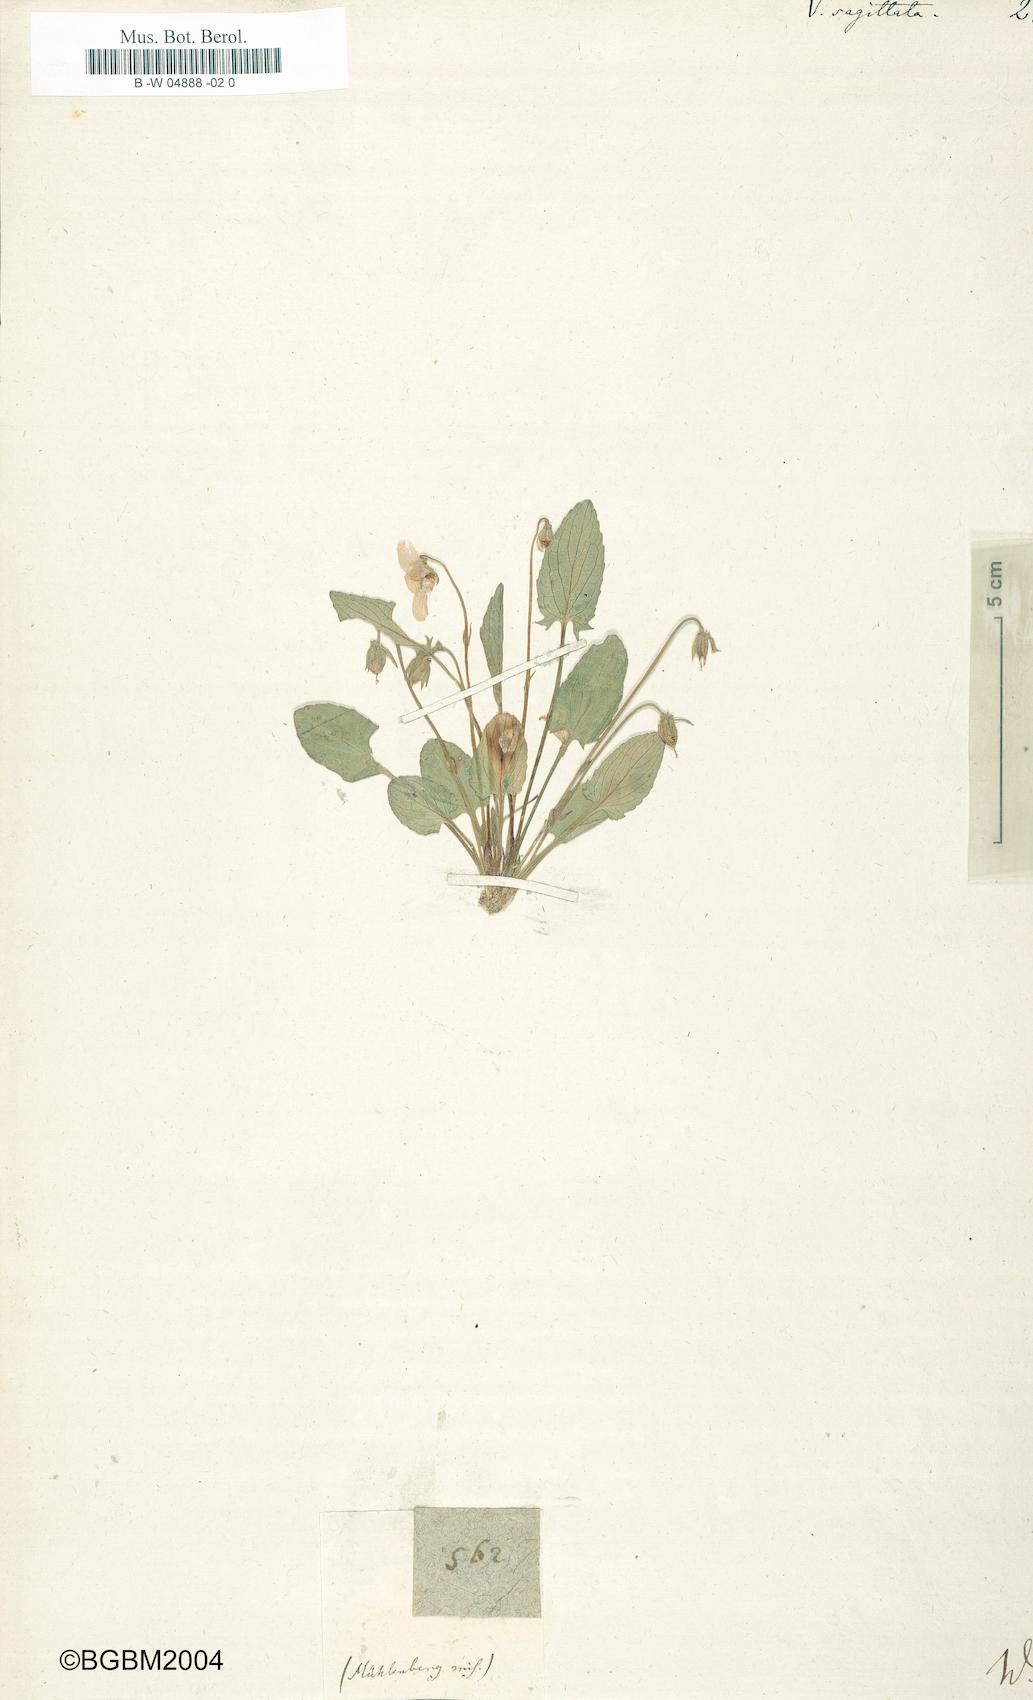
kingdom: Plantae
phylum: Tracheophyta
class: Magnoliopsida
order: Malpighiales
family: Violaceae
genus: Viola
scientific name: Viola sagittata
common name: Arrowhead violet
